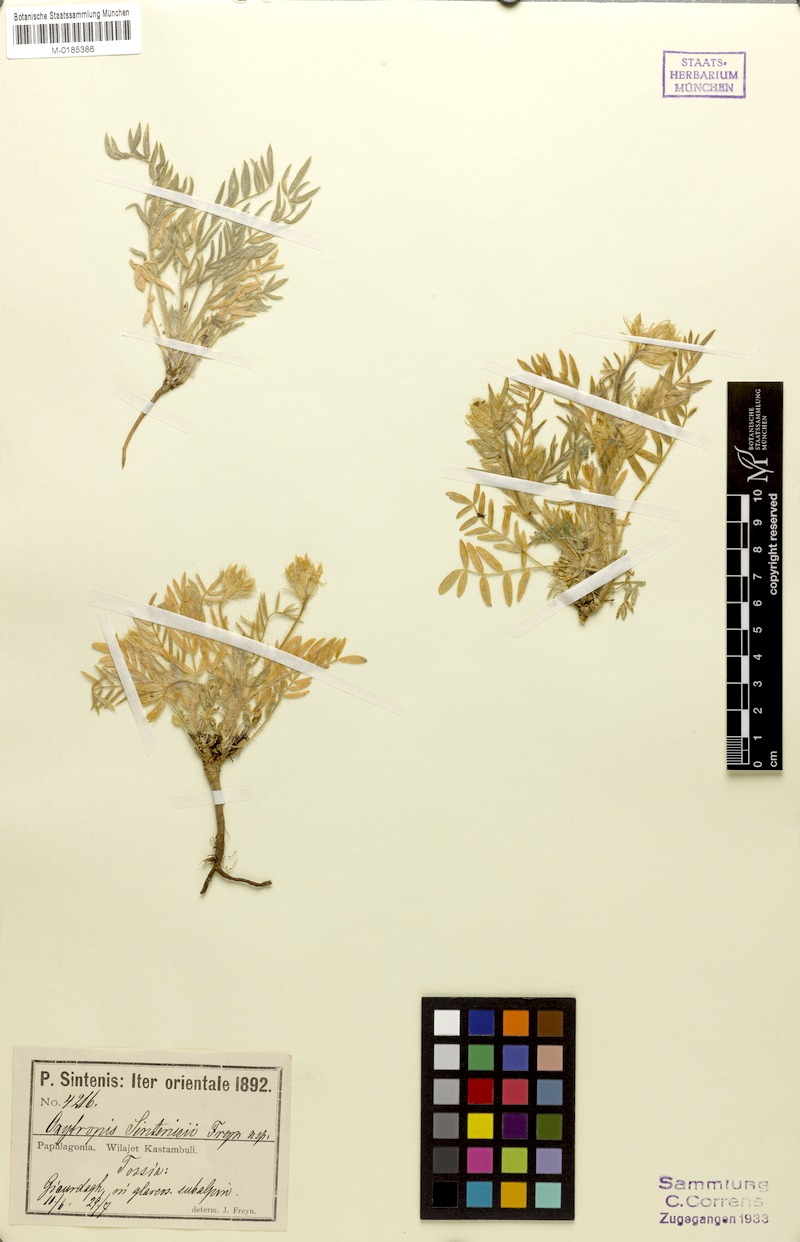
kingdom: Plantae
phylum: Tracheophyta
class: Magnoliopsida
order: Fabales
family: Fabaceae
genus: Oxytropis
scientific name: Oxytropis pallasii
